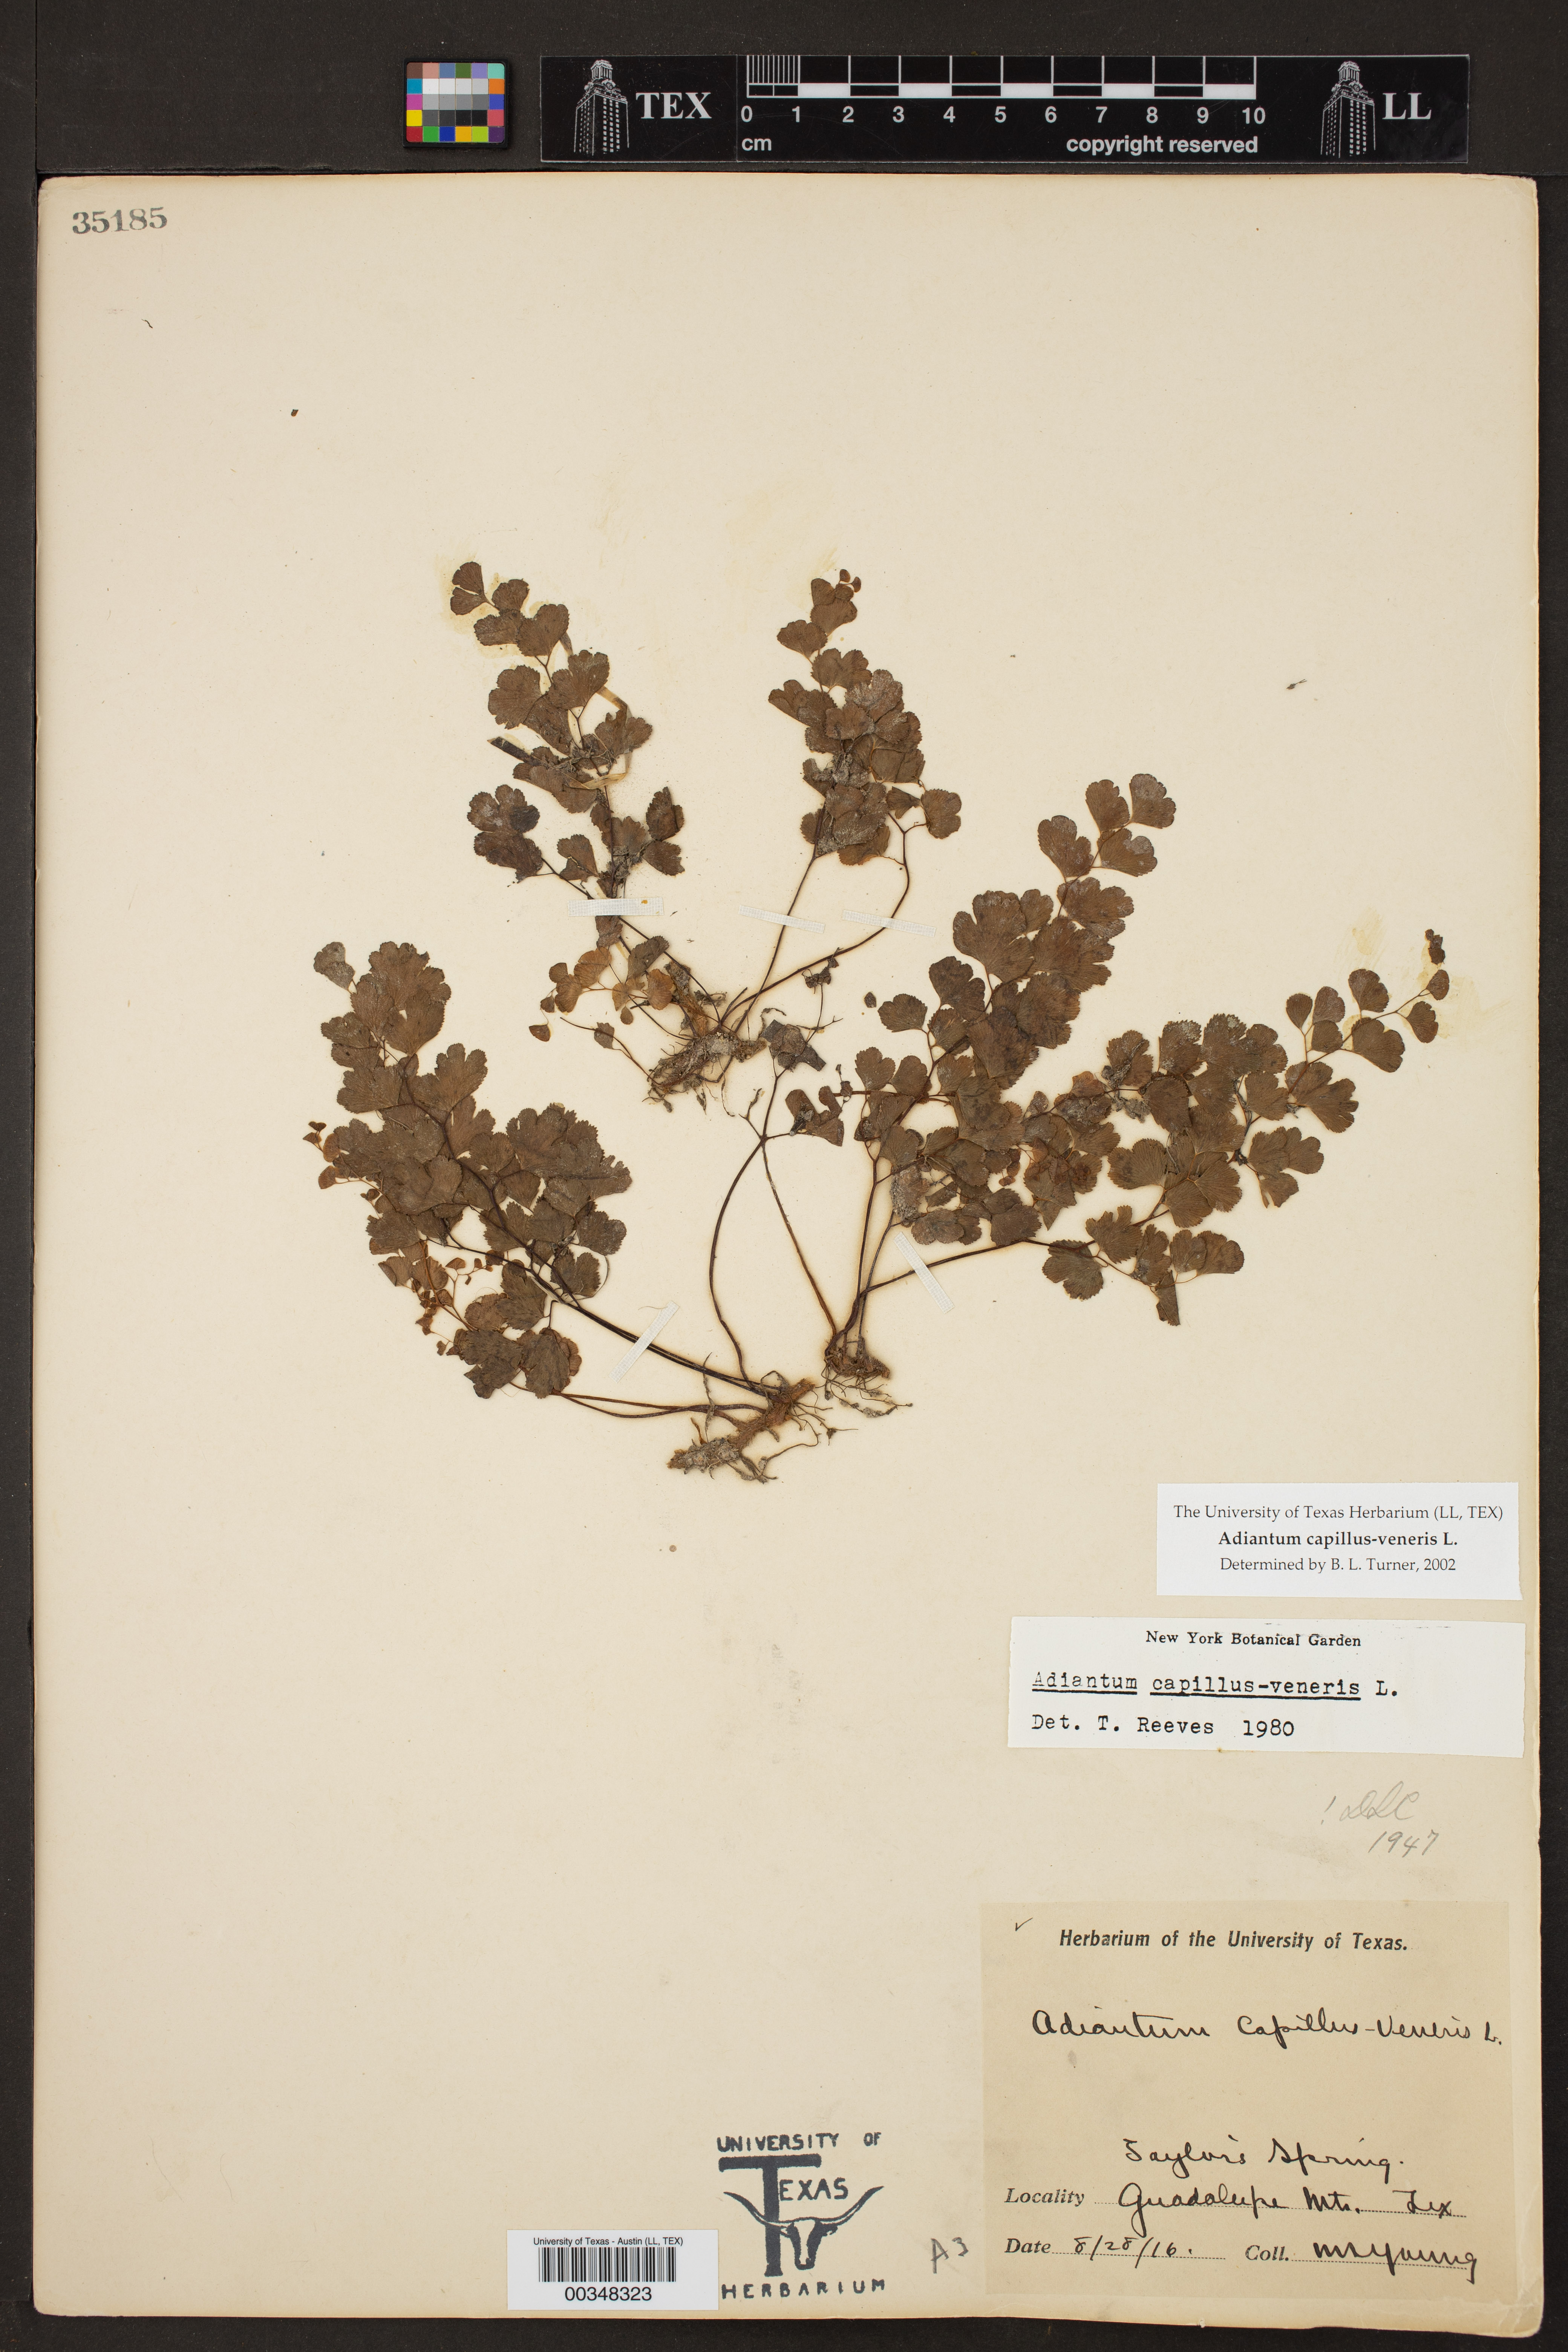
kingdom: Plantae
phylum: Tracheophyta
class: Polypodiopsida
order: Polypodiales
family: Pteridaceae
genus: Adiantum
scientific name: Adiantum capillus-veneris
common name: Maidenhair fern
